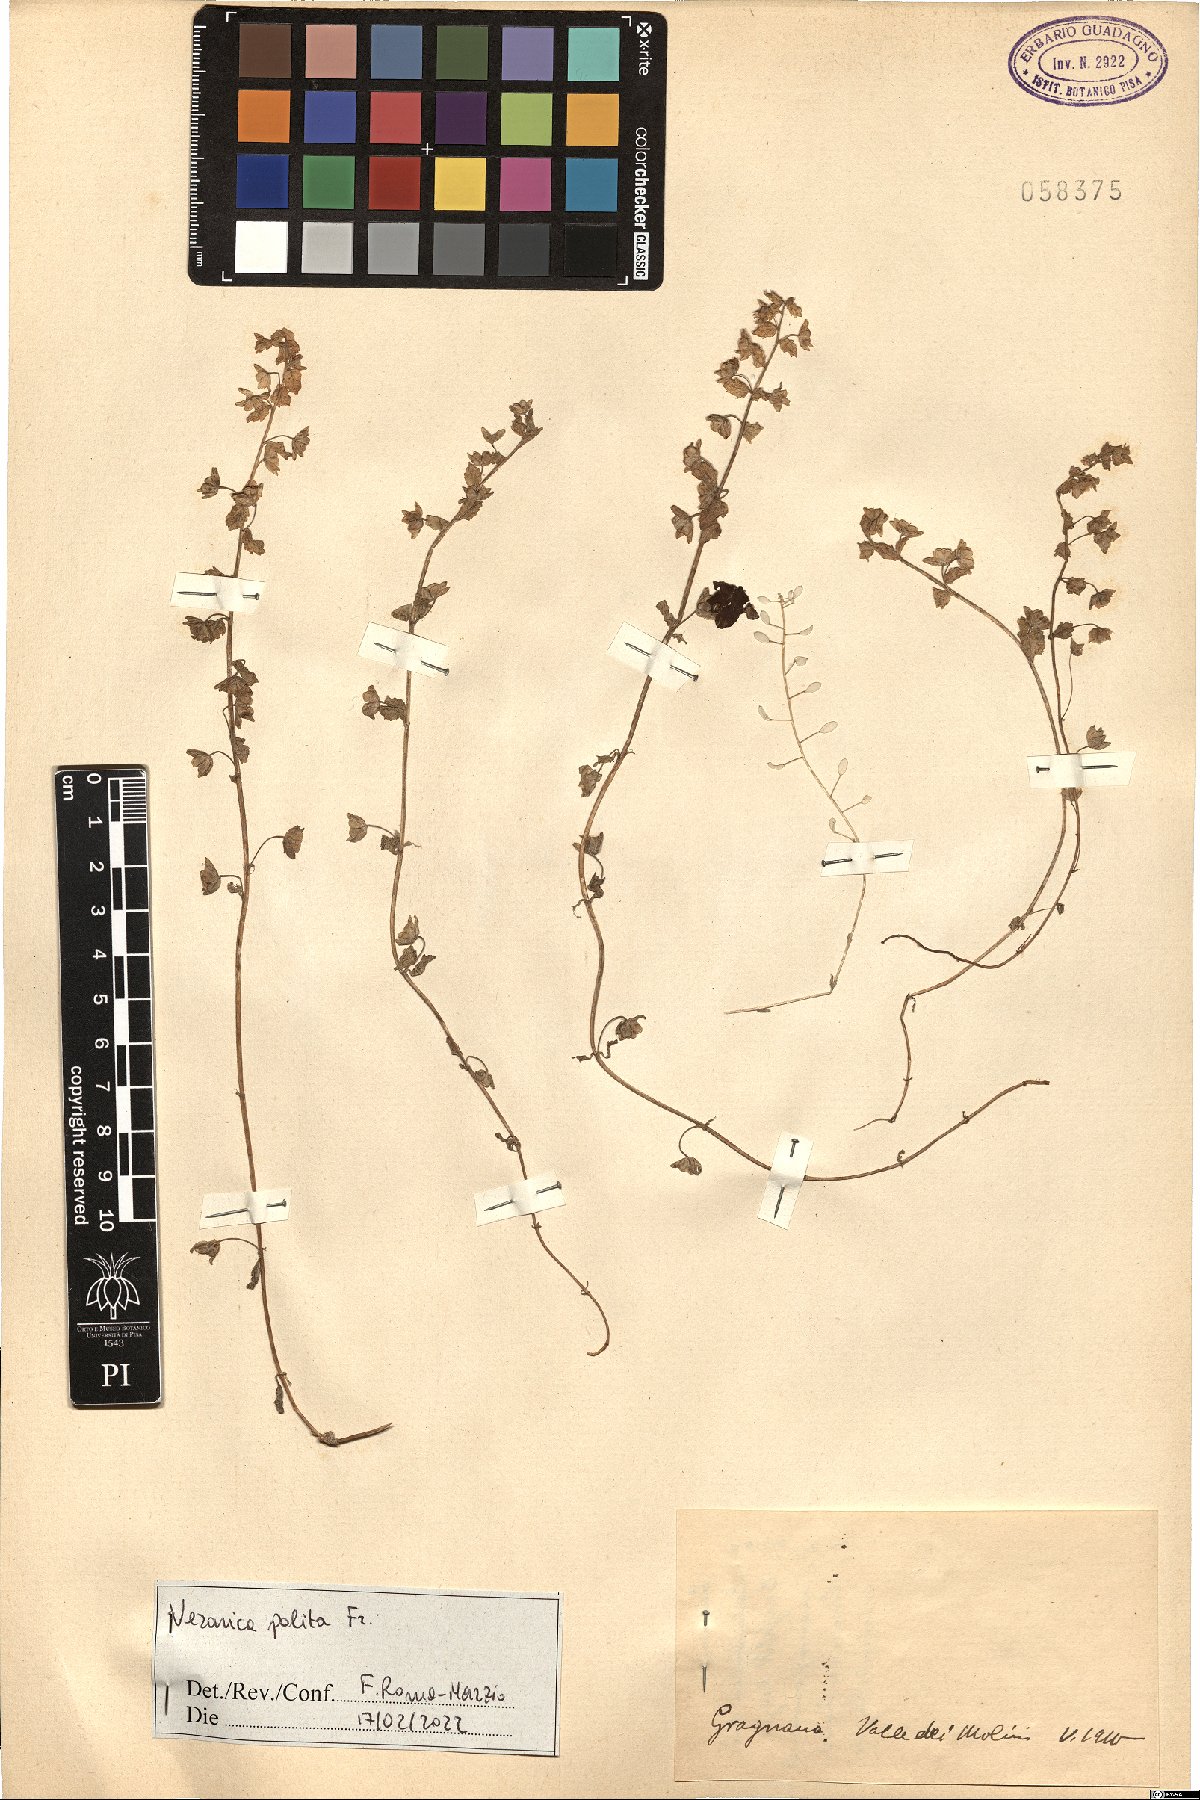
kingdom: Plantae
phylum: Tracheophyta
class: Magnoliopsida
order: Lamiales
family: Plantaginaceae
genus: Veronica
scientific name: Veronica polita
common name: Grey field-speedwell
